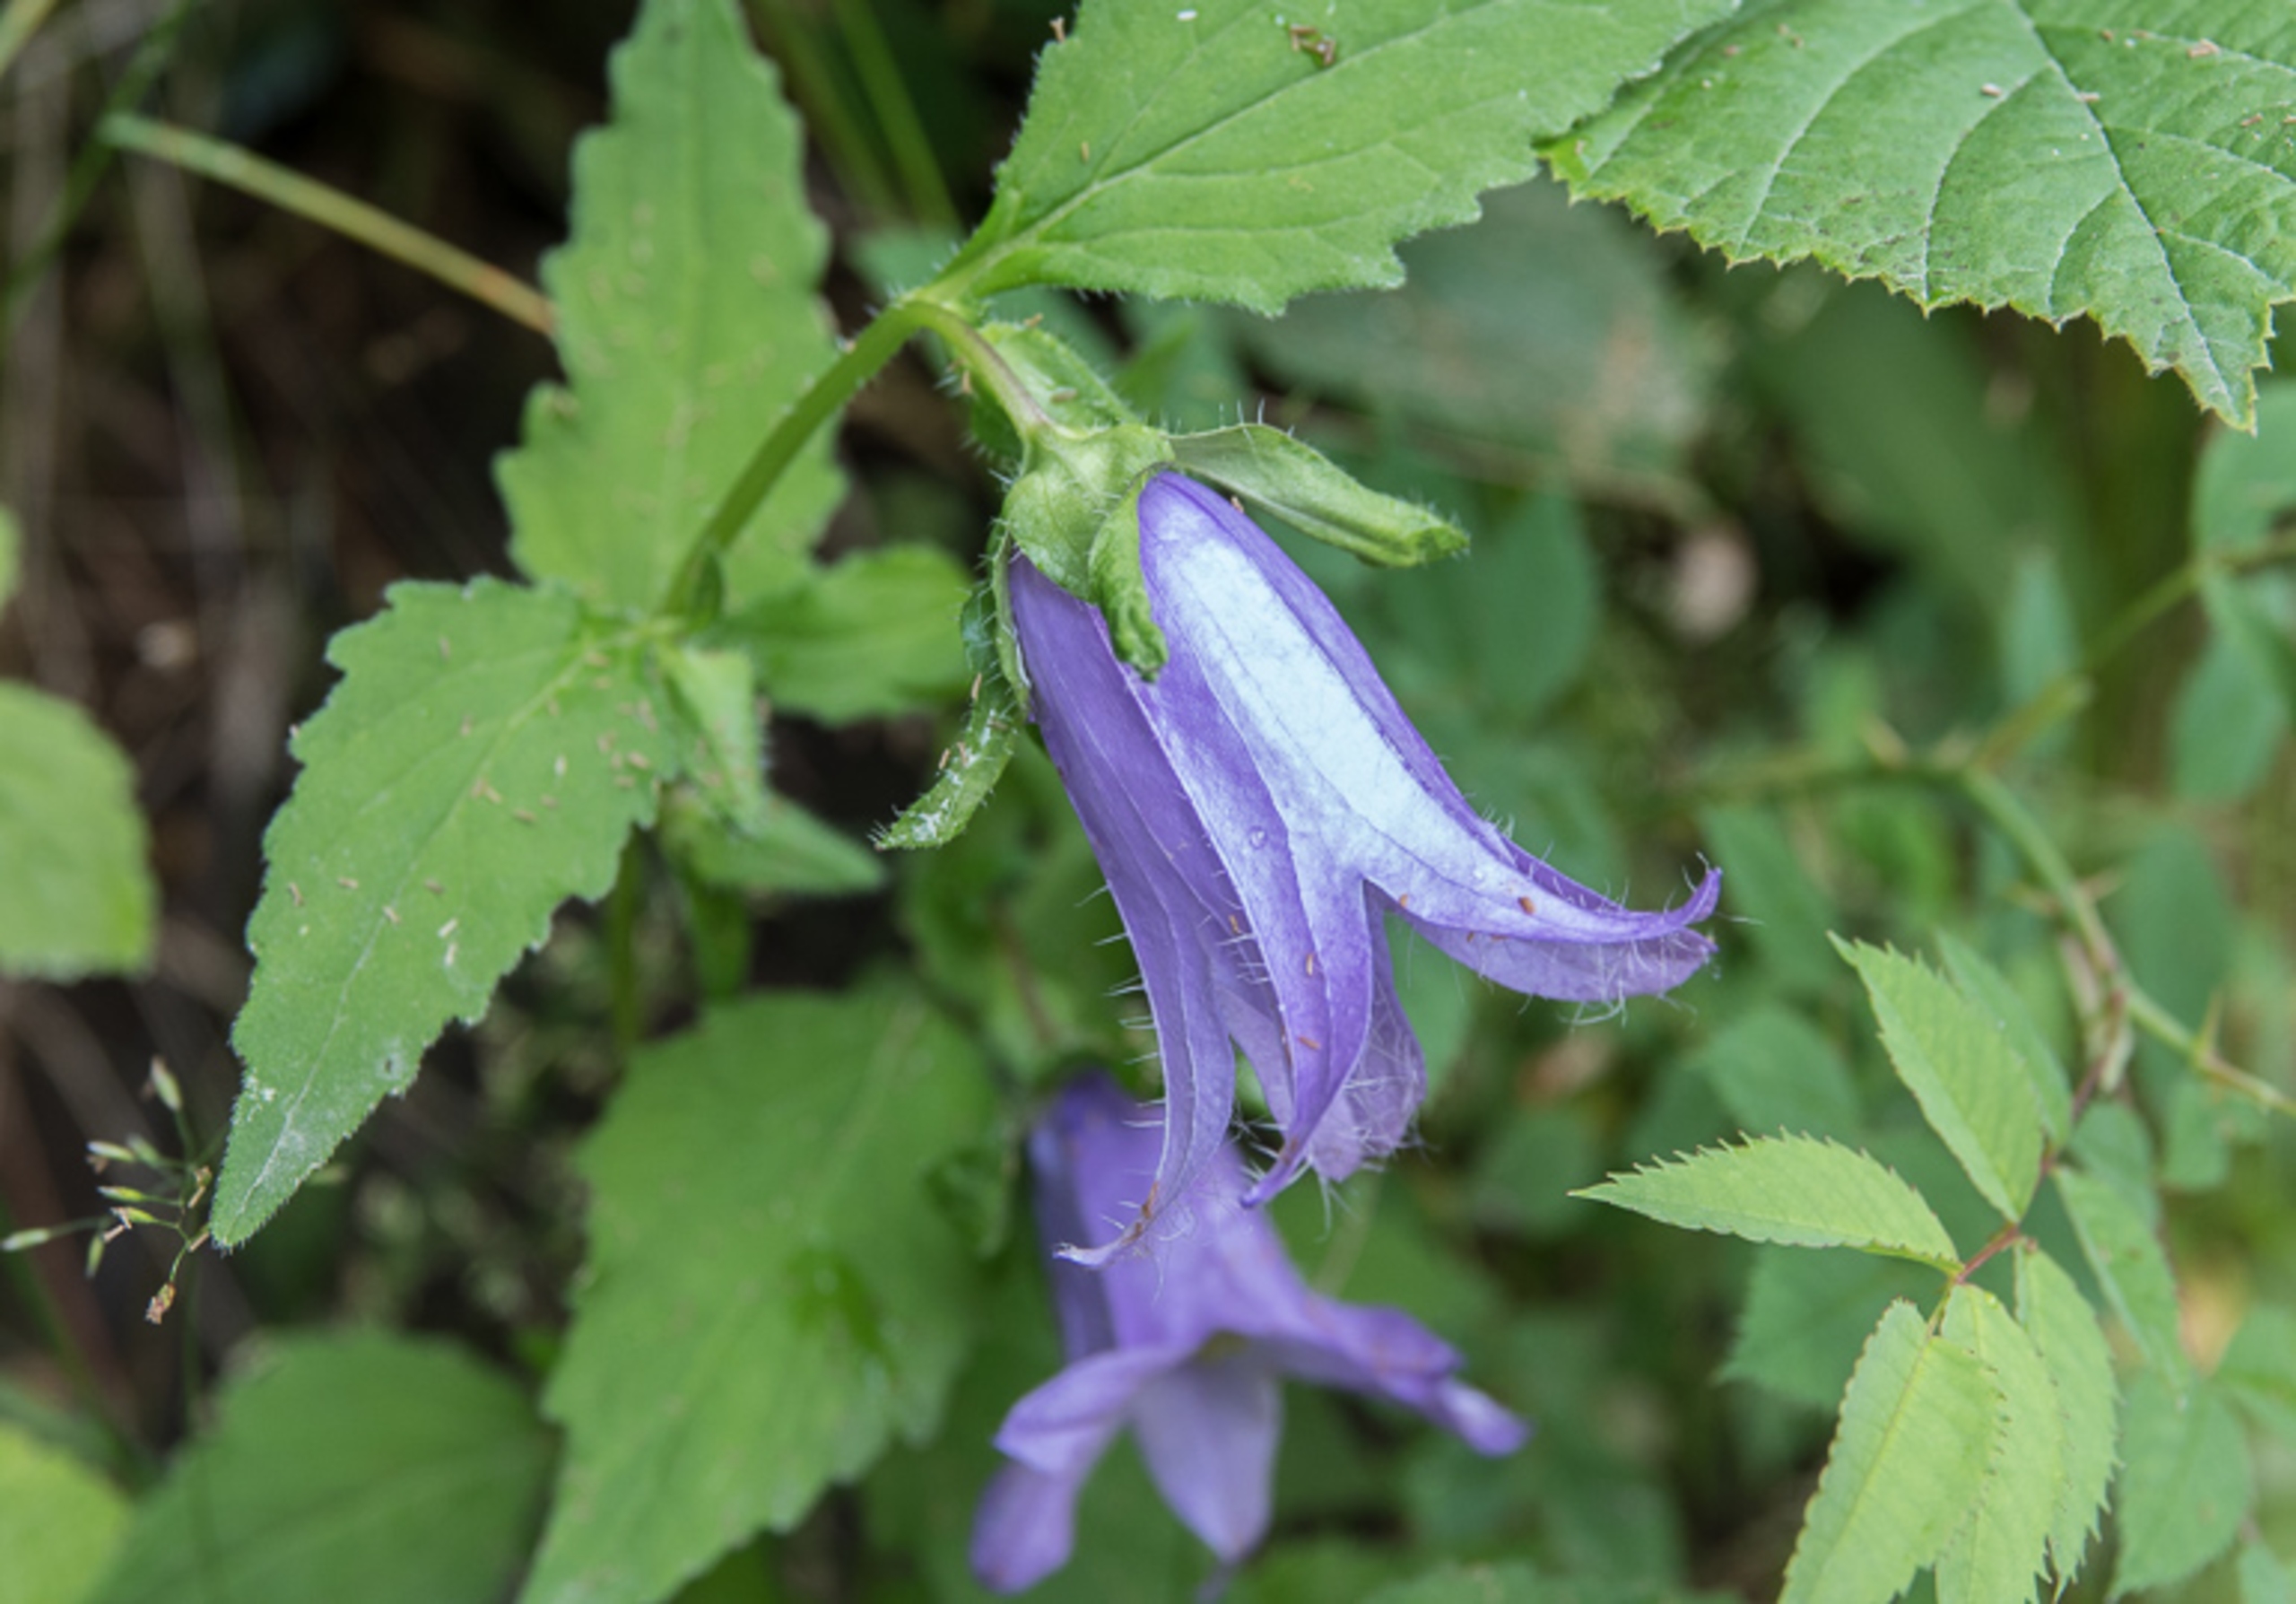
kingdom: Plantae
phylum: Tracheophyta
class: Magnoliopsida
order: Asterales
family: Campanulaceae
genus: Campanula
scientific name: Campanula trachelium
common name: Nælde-klokke
